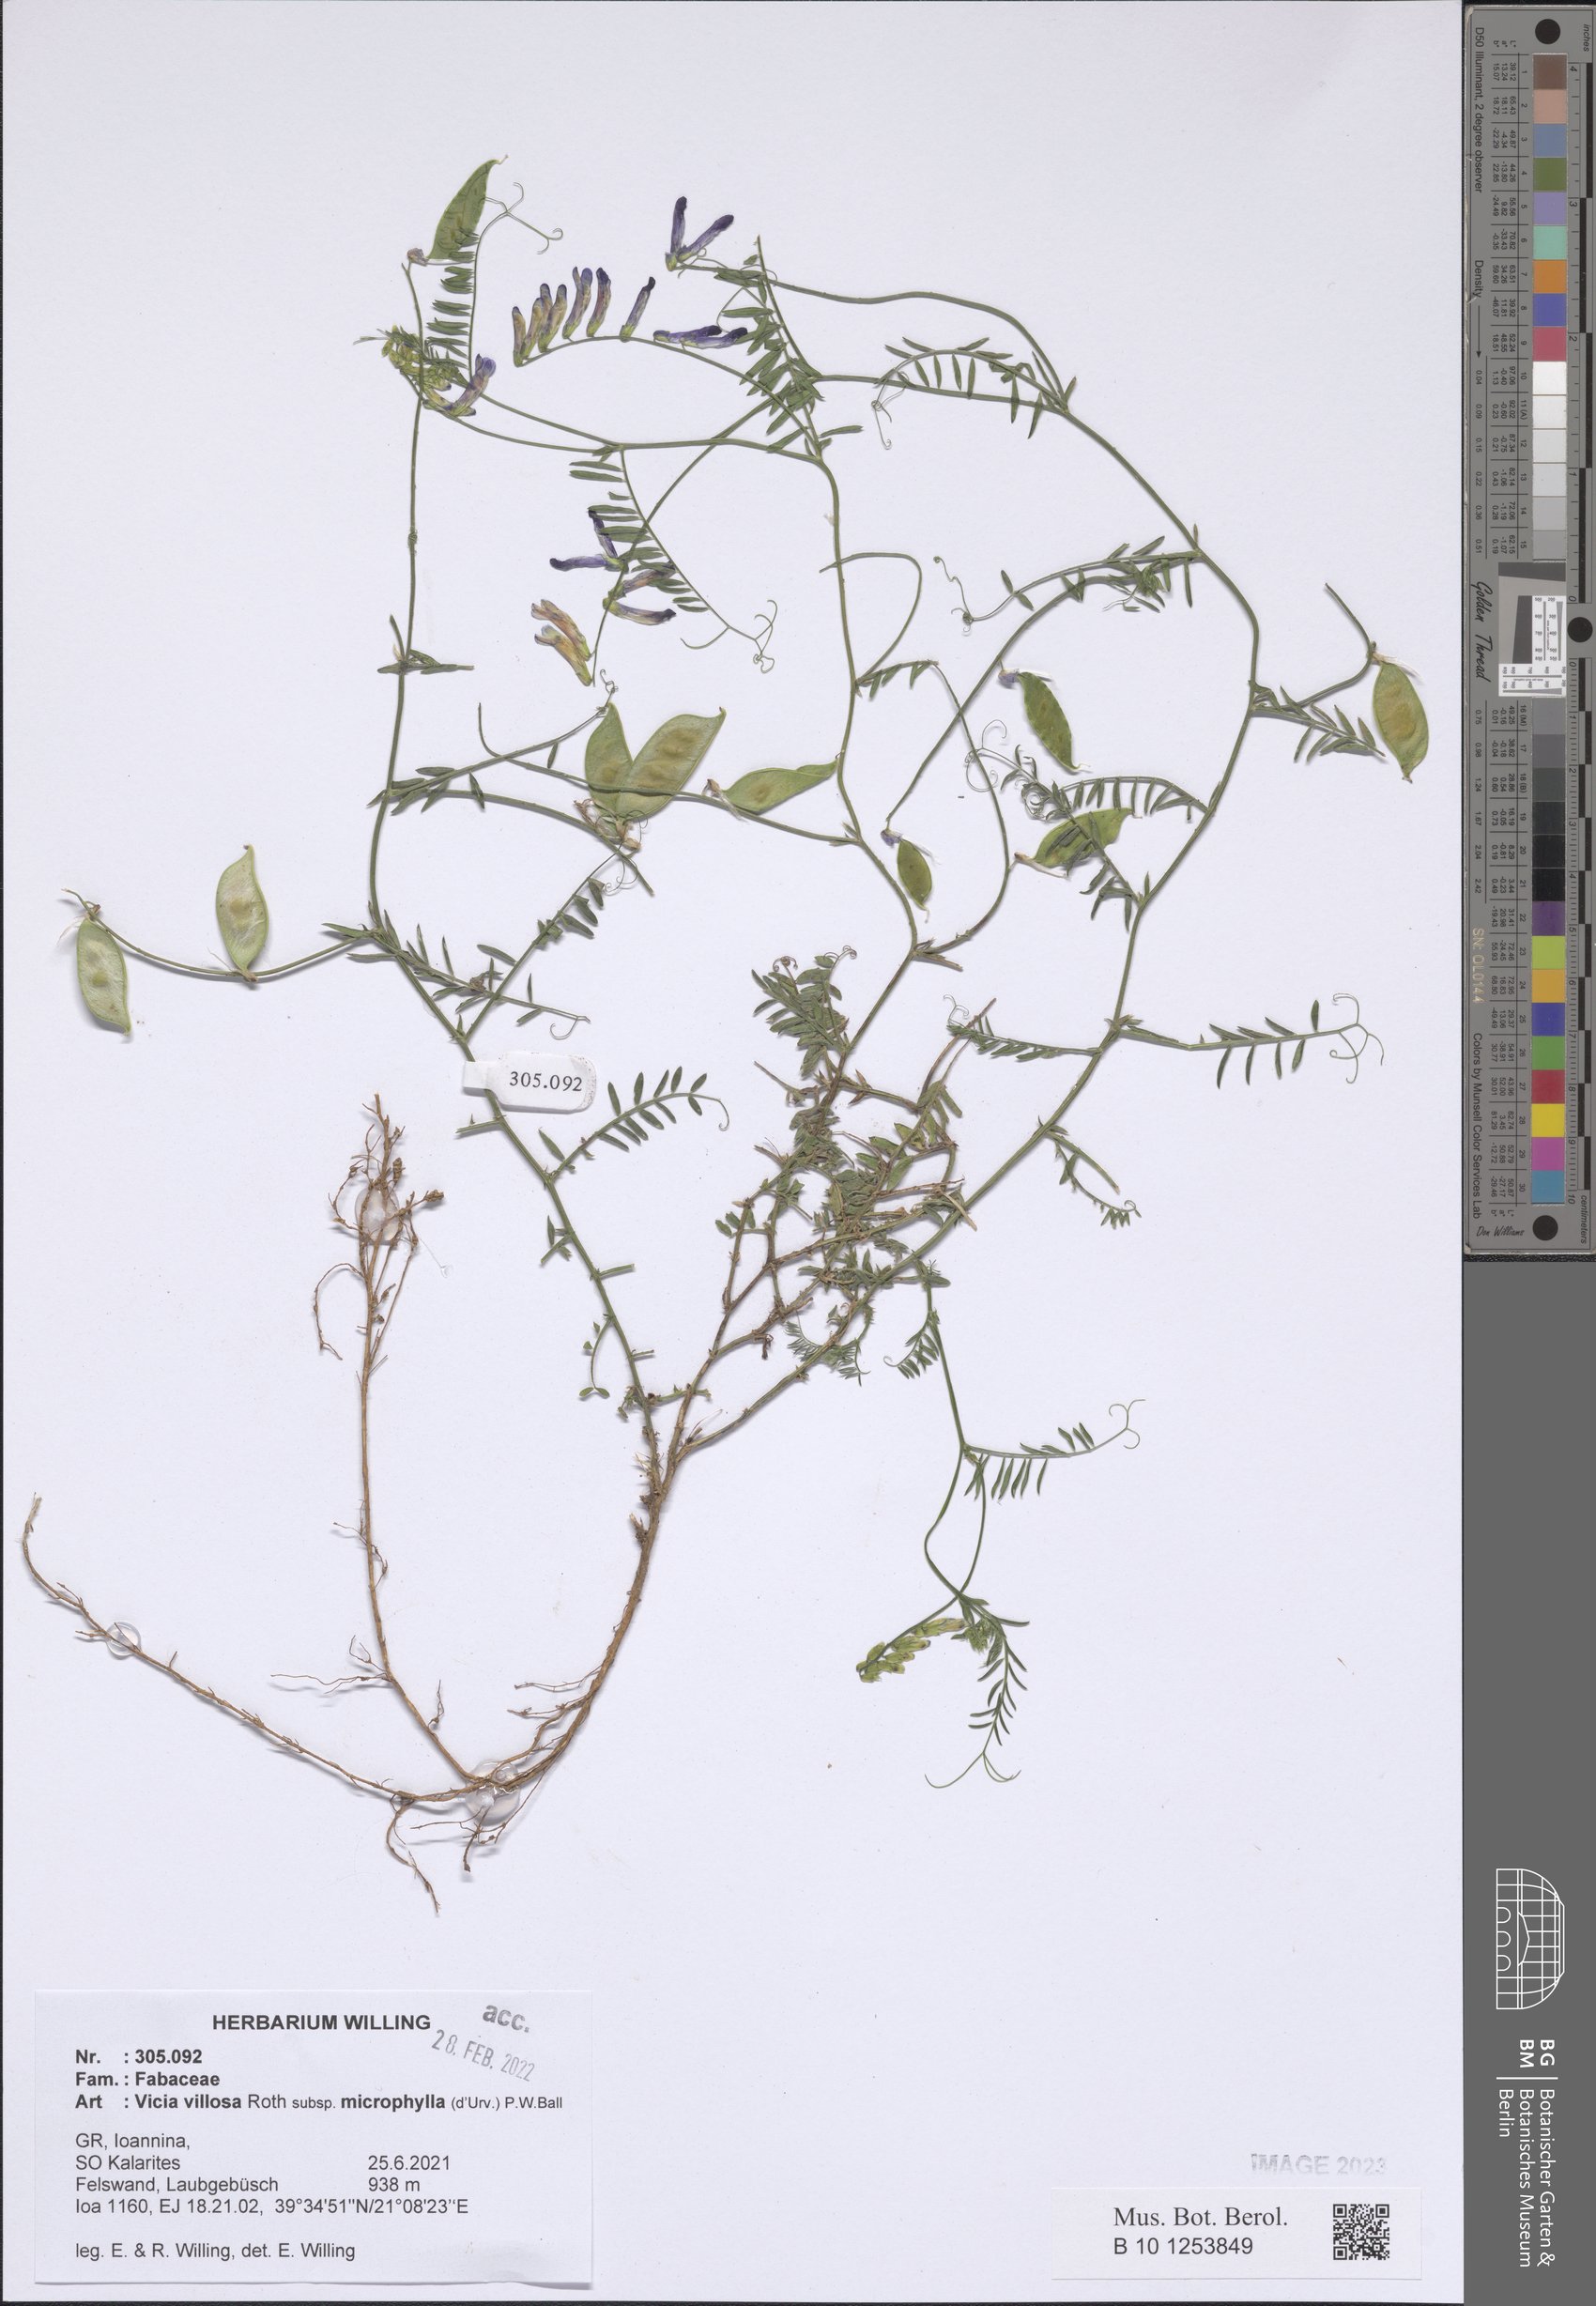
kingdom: Plantae
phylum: Tracheophyta
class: Magnoliopsida
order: Fabales
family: Fabaceae
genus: Vicia
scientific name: Vicia villosa
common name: Fodder vetch
